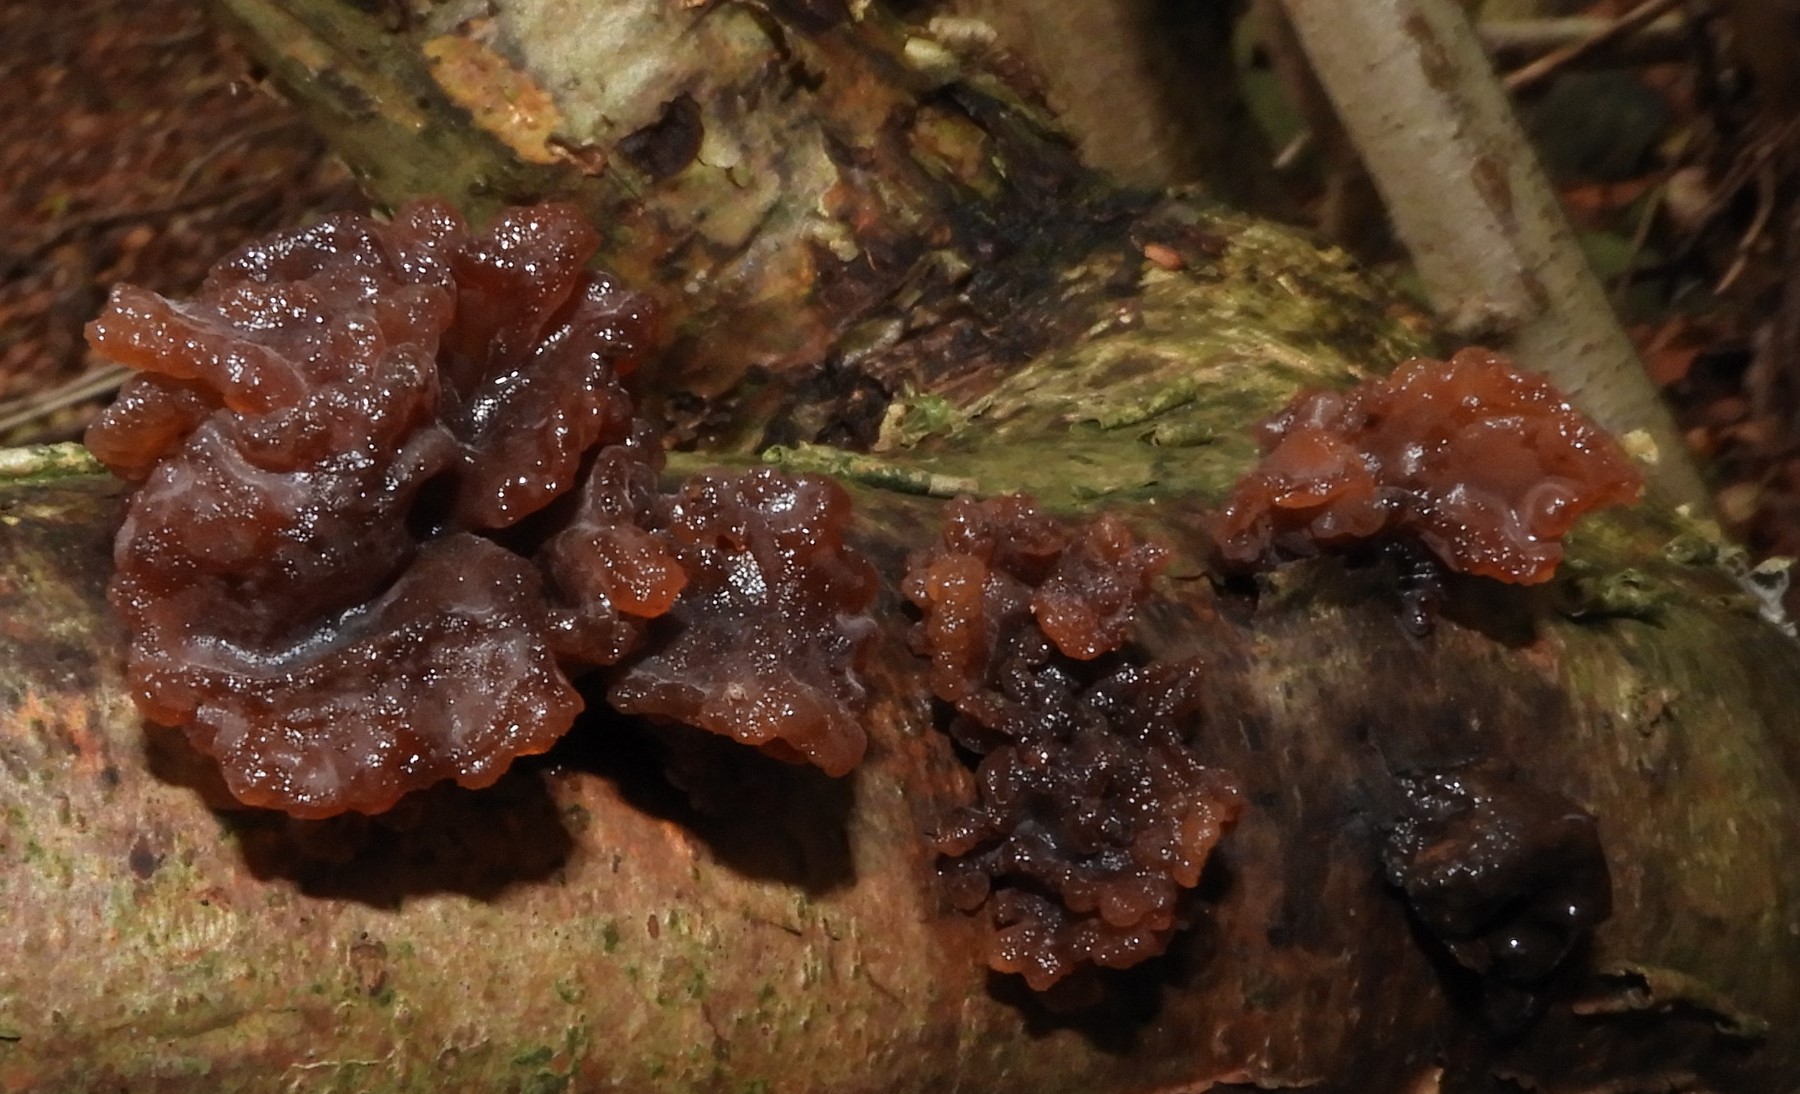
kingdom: Fungi
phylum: Basidiomycota
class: Tremellomycetes
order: Tremellales
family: Tremellaceae
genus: Phaeotremella
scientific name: Phaeotremella frondosa
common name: kæmpe-bævresvamp
